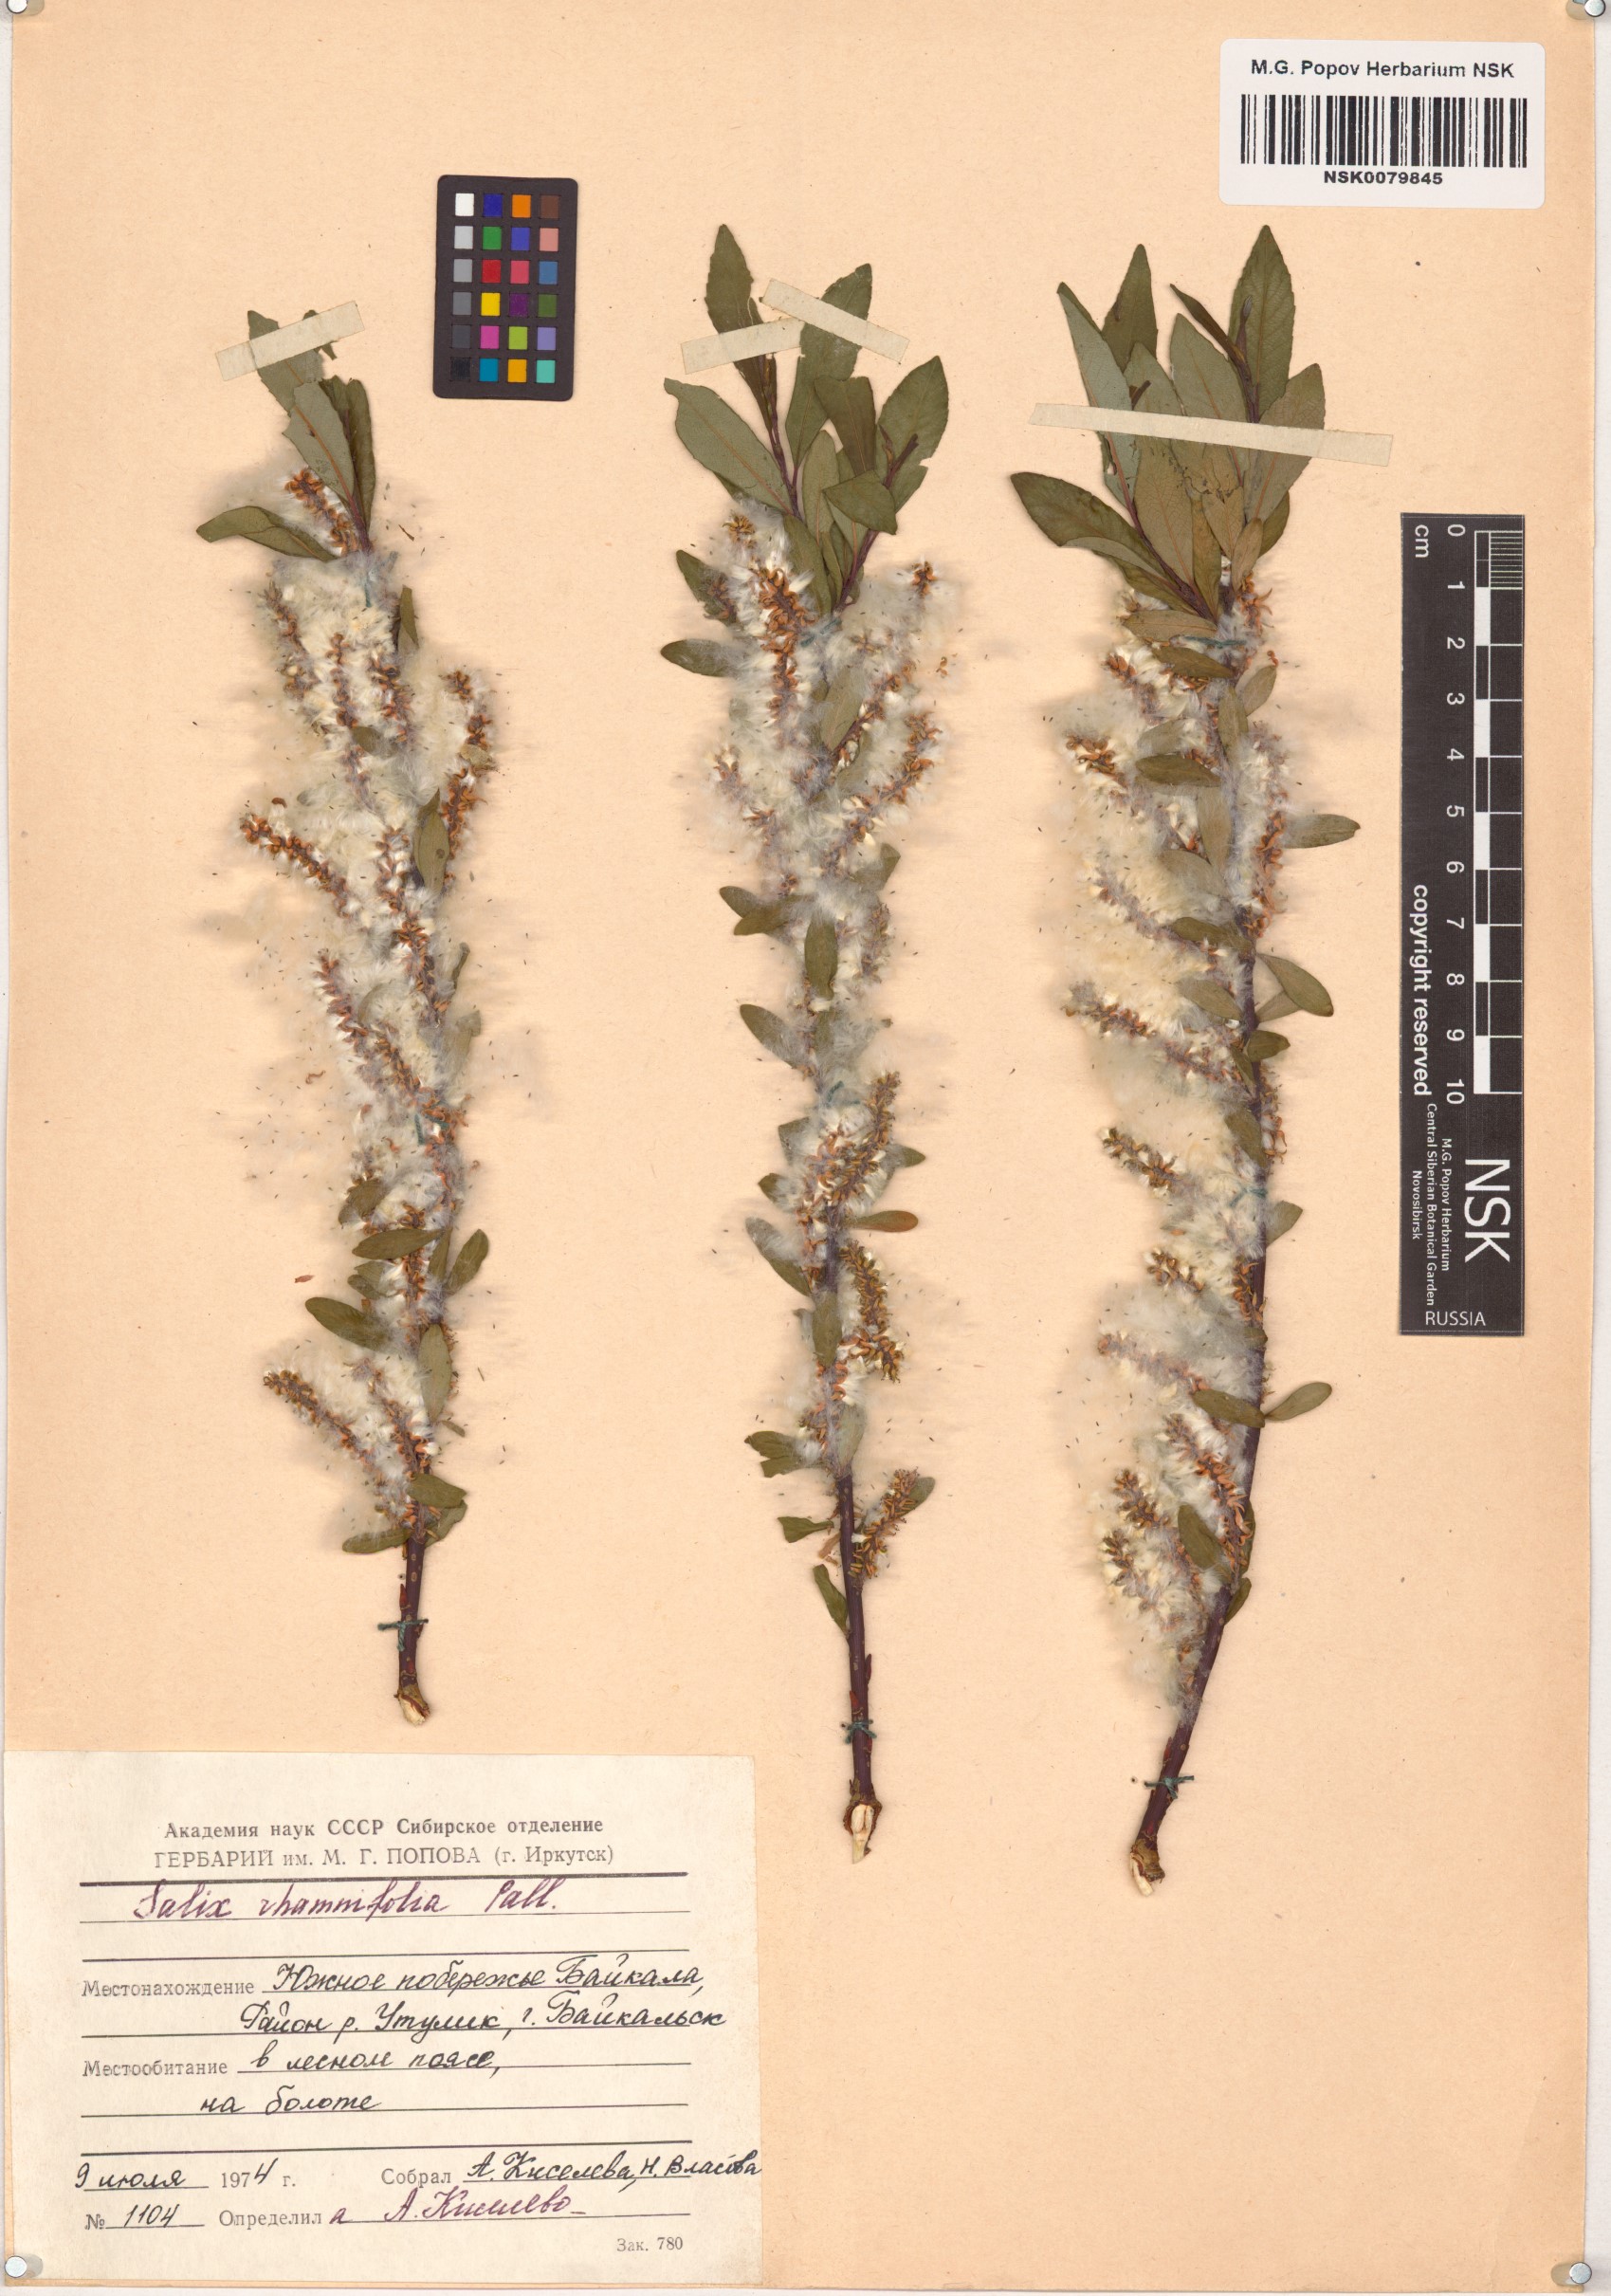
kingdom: Plantae
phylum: Tracheophyta
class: Magnoliopsida
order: Malpighiales
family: Salicaceae
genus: Salix
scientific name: Salix rhamnifolia
